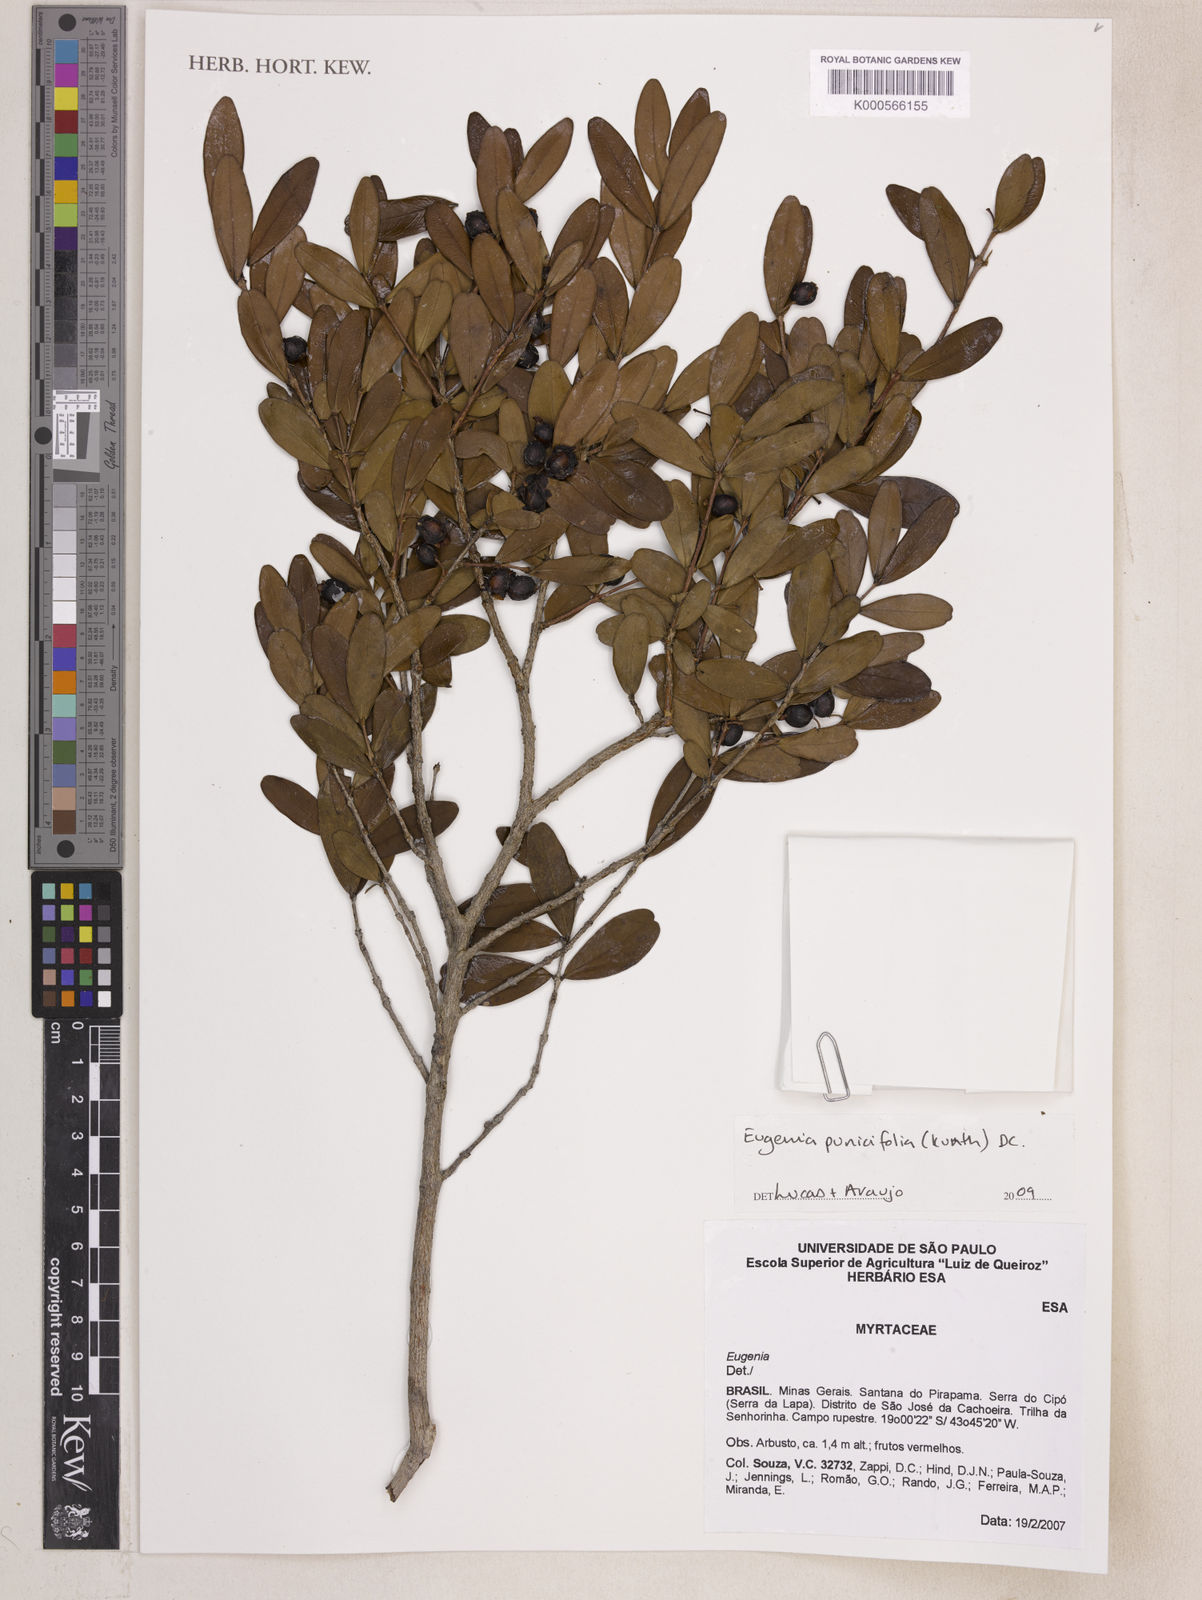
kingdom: Plantae
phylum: Tracheophyta
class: Magnoliopsida
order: Myrtales
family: Myrtaceae
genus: Eugenia
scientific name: Eugenia punicifolia
